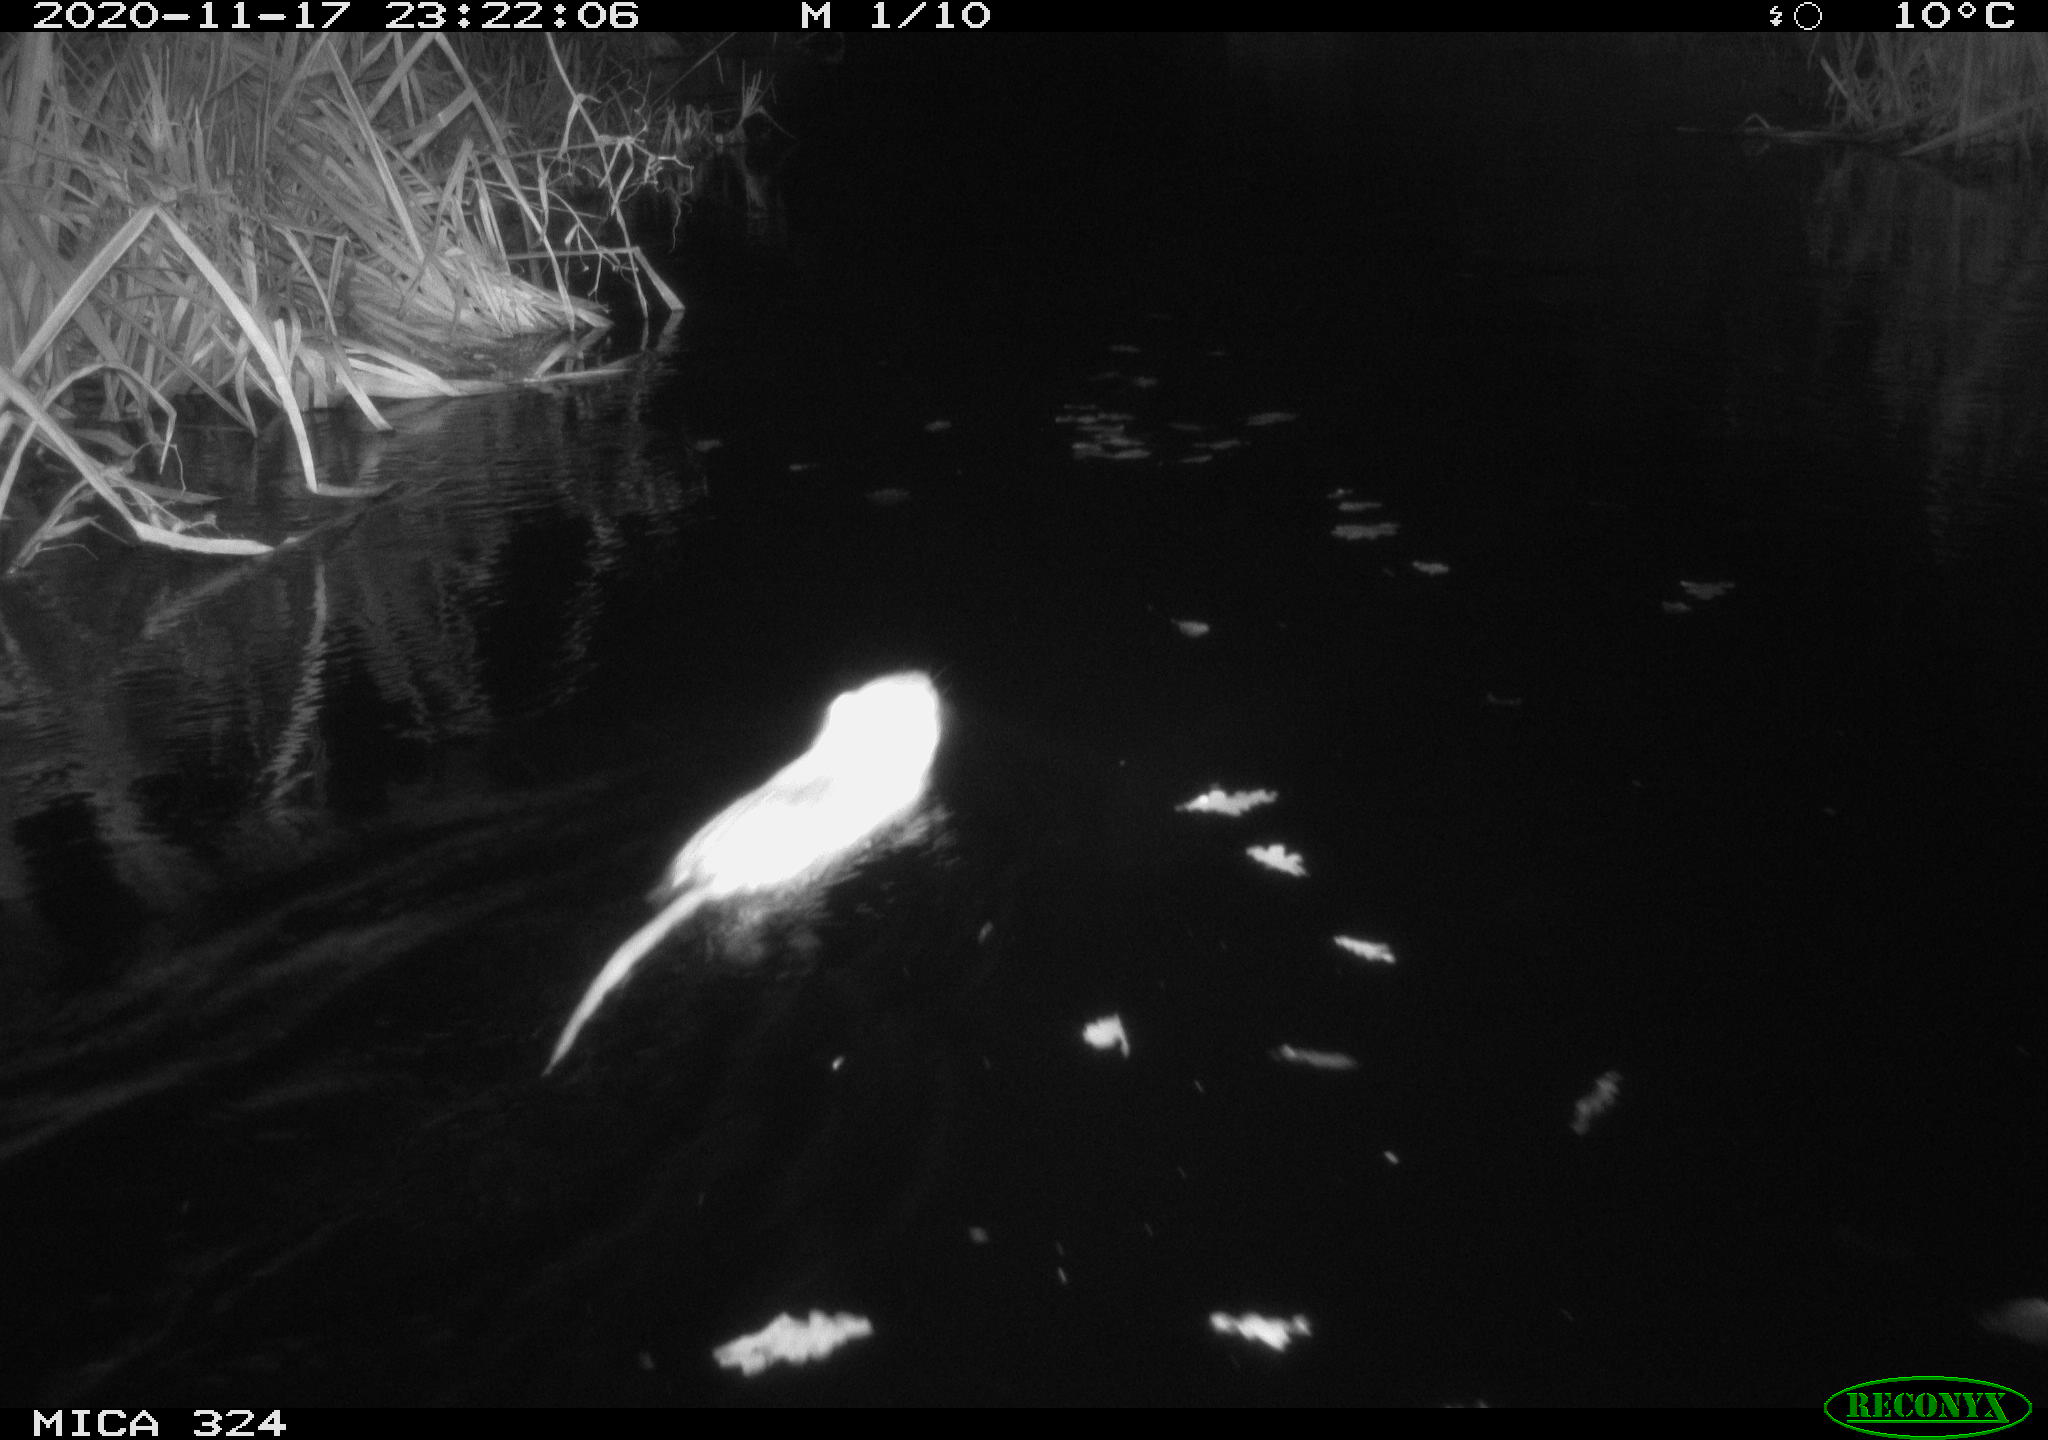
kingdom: Animalia
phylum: Chordata
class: Mammalia
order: Rodentia
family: Myocastoridae
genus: Myocastor
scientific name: Myocastor coypus
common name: Coypu
